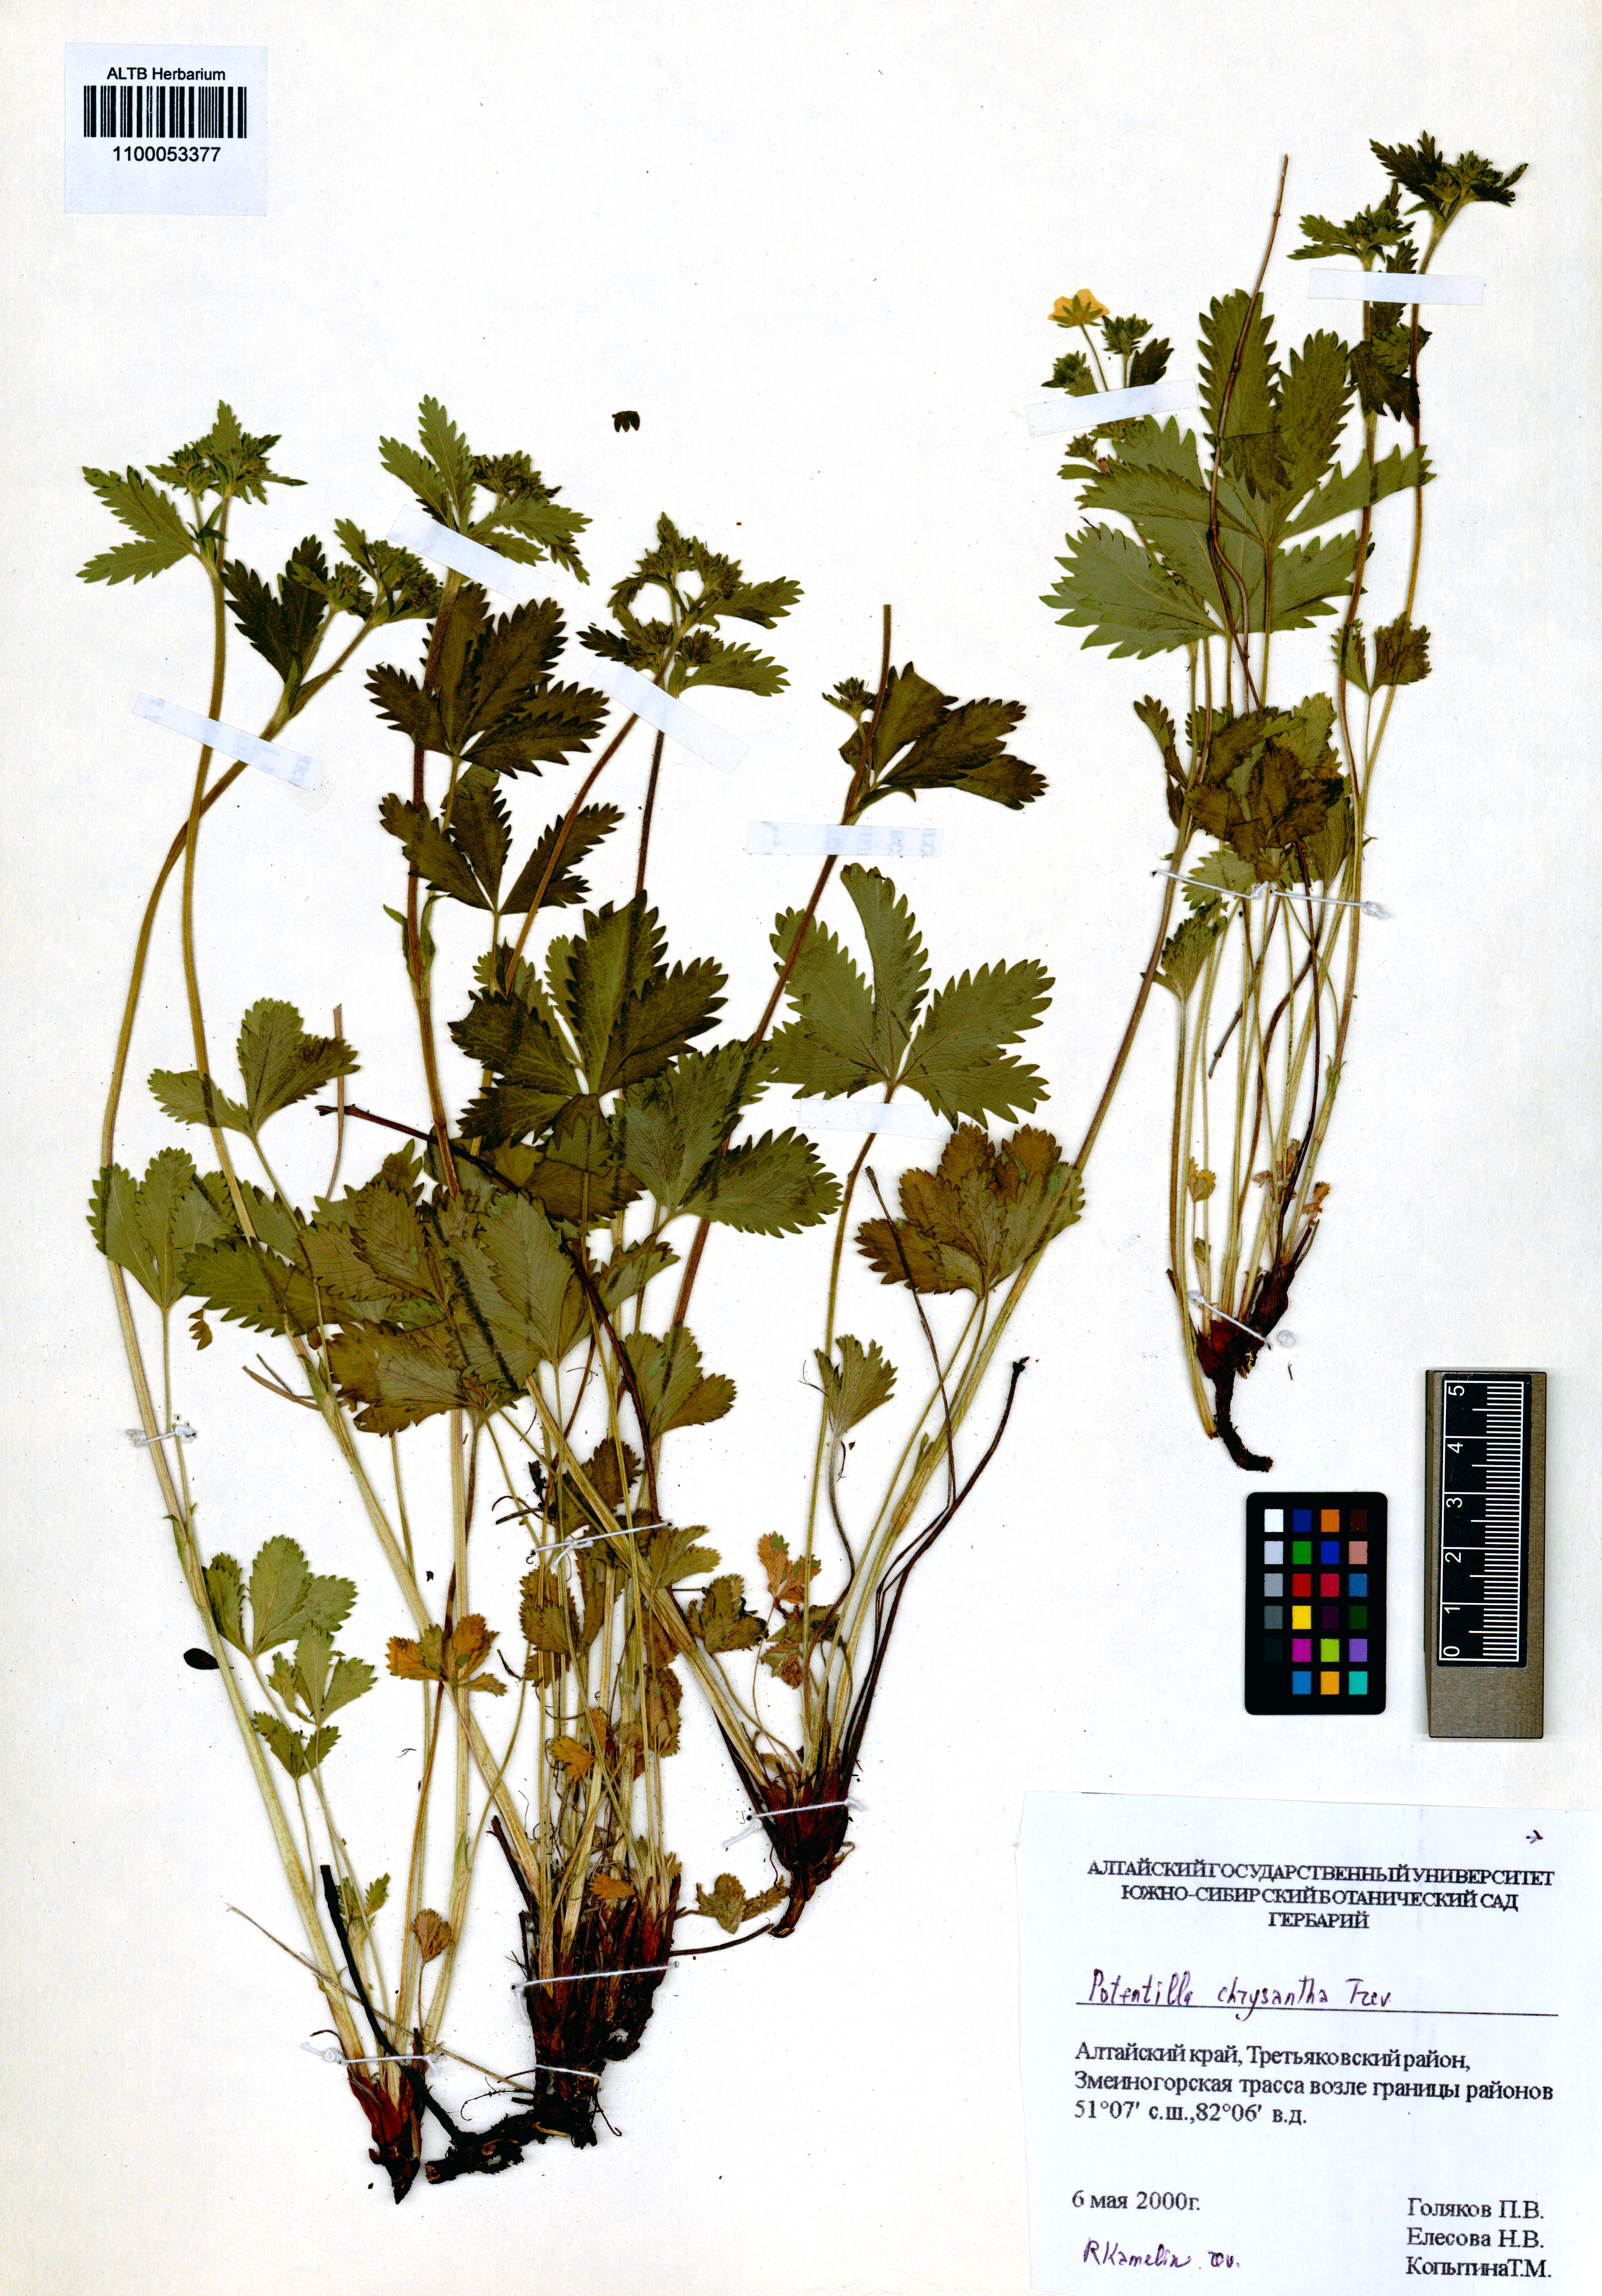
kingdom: Plantae
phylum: Tracheophyta
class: Magnoliopsida
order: Rosales
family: Rosaceae
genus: Potentilla
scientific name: Potentilla chrysantha
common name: Thuringian cinquefoil
